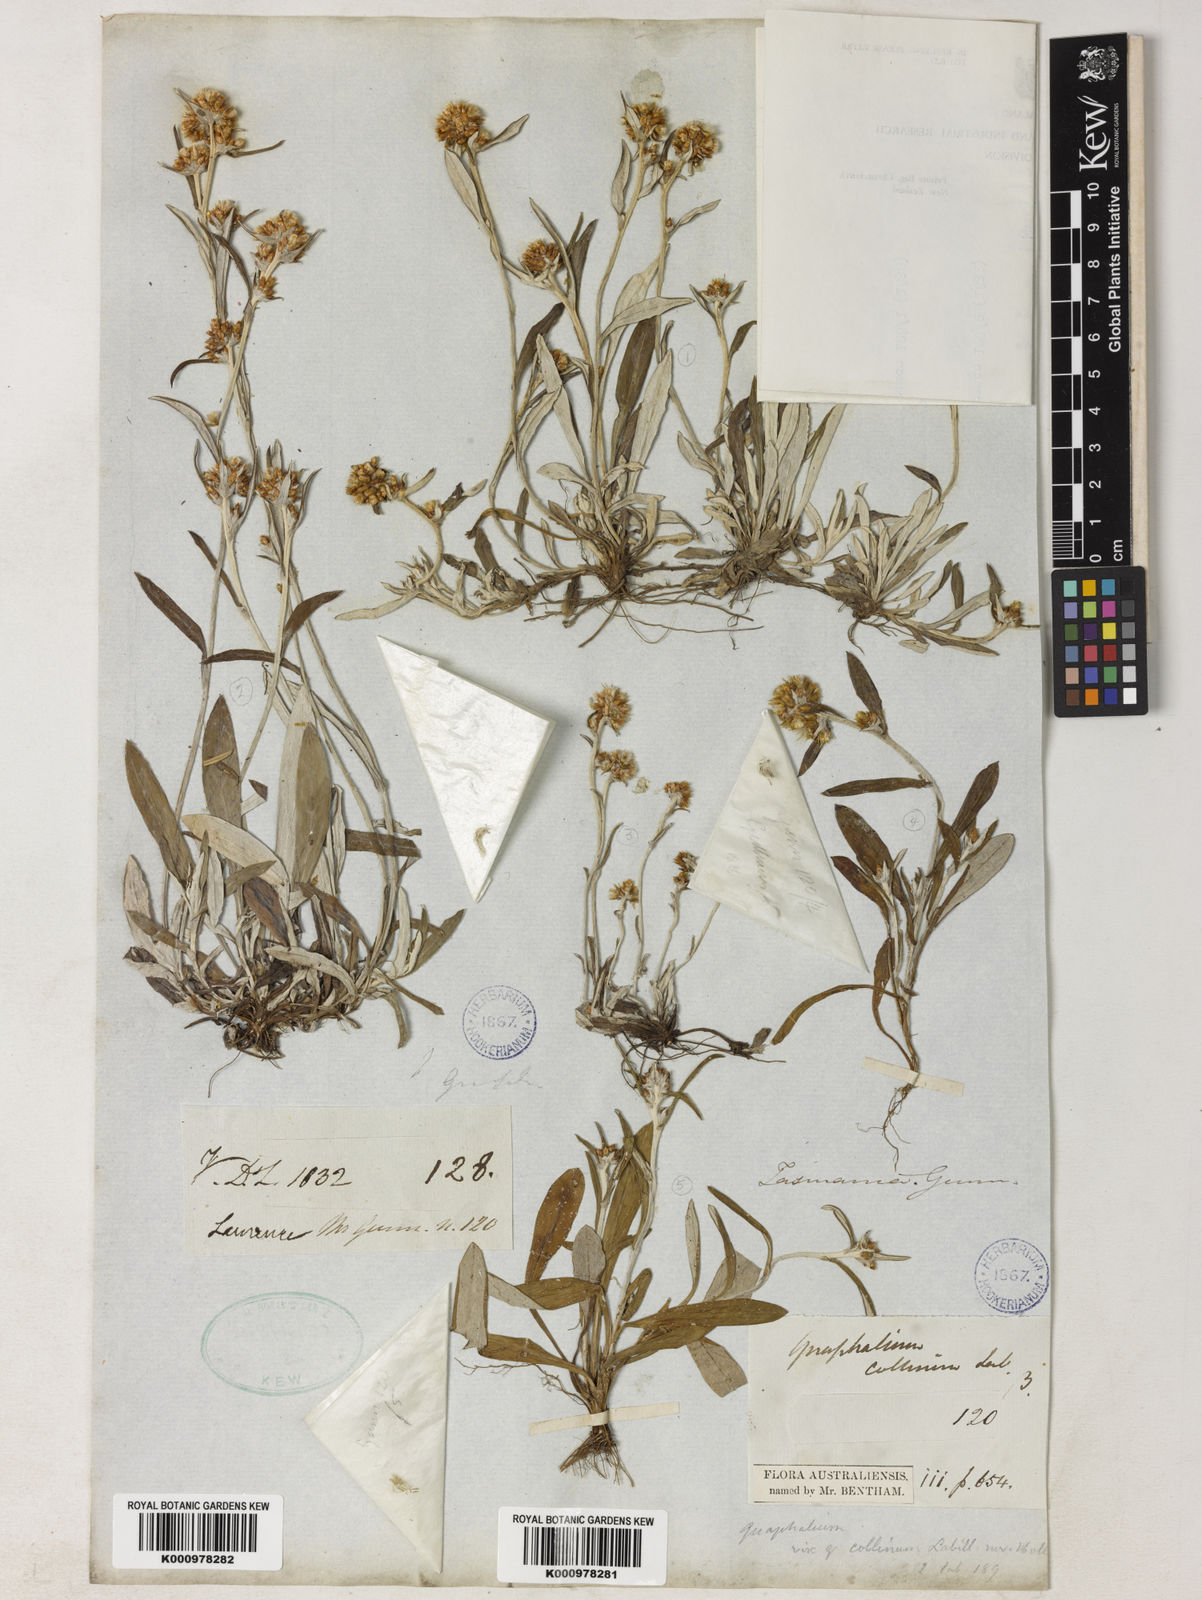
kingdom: Plantae
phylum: Tracheophyta
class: Magnoliopsida
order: Asterales
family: Asteraceae
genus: Euchiton
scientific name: Euchiton gymnocephalus
